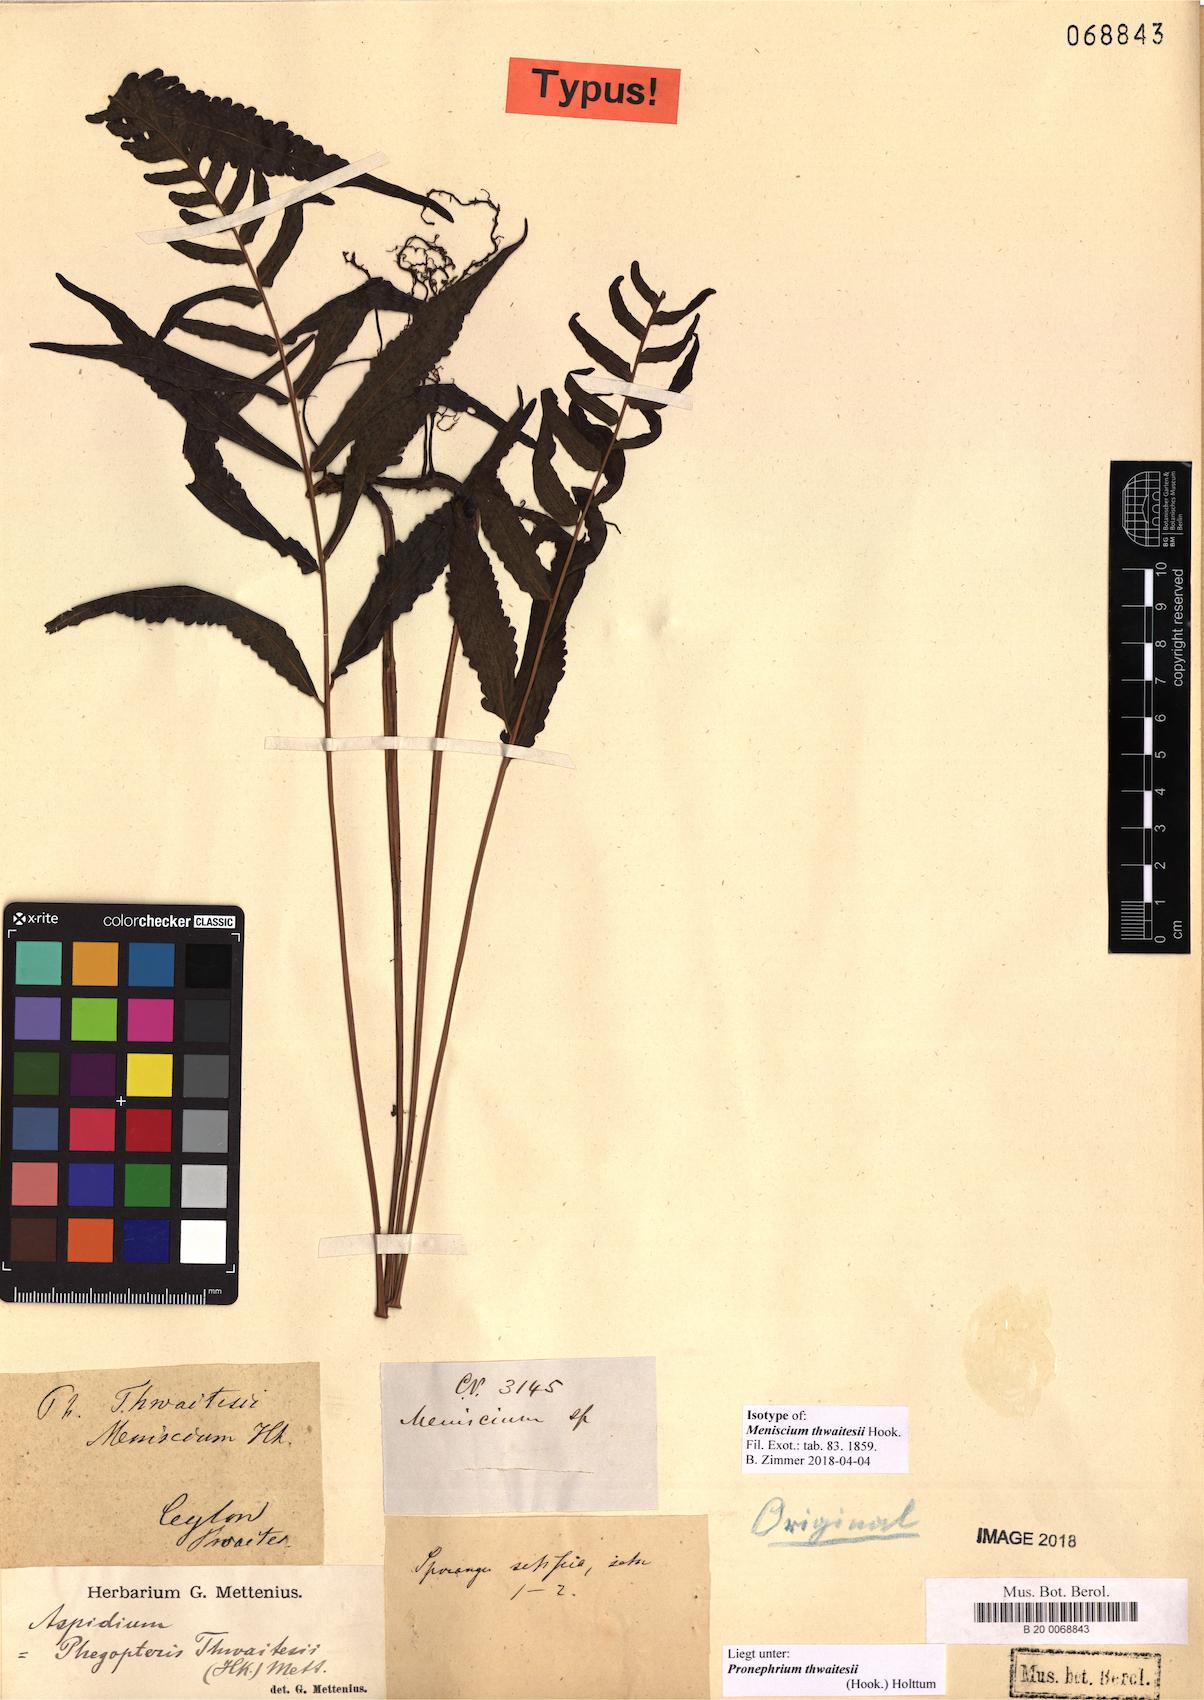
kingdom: Plantae
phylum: Tracheophyta
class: Polypodiopsida
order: Polypodiales
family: Thelypteridaceae
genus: Chrinephrium
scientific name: Chrinephrium thwaitesii
